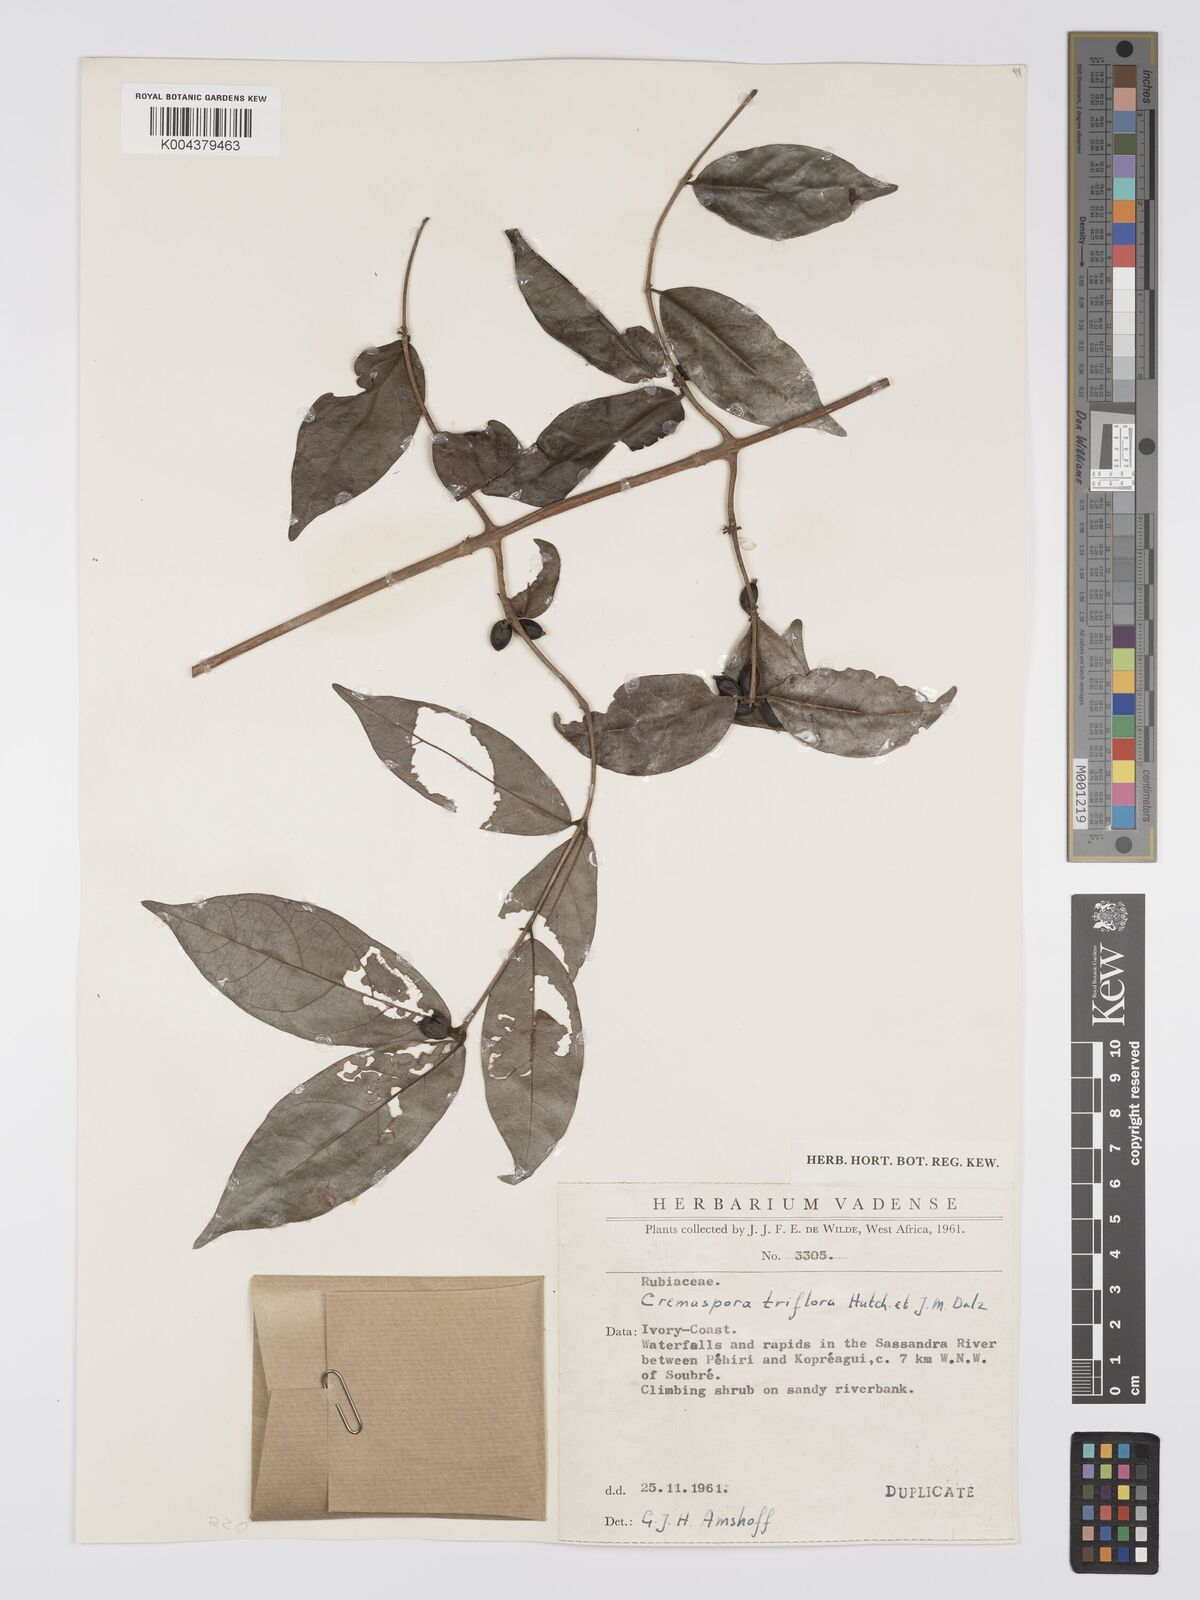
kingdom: Plantae
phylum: Tracheophyta
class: Magnoliopsida
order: Gentianales
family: Rubiaceae
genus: Cremaspora
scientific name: Cremaspora triflora
